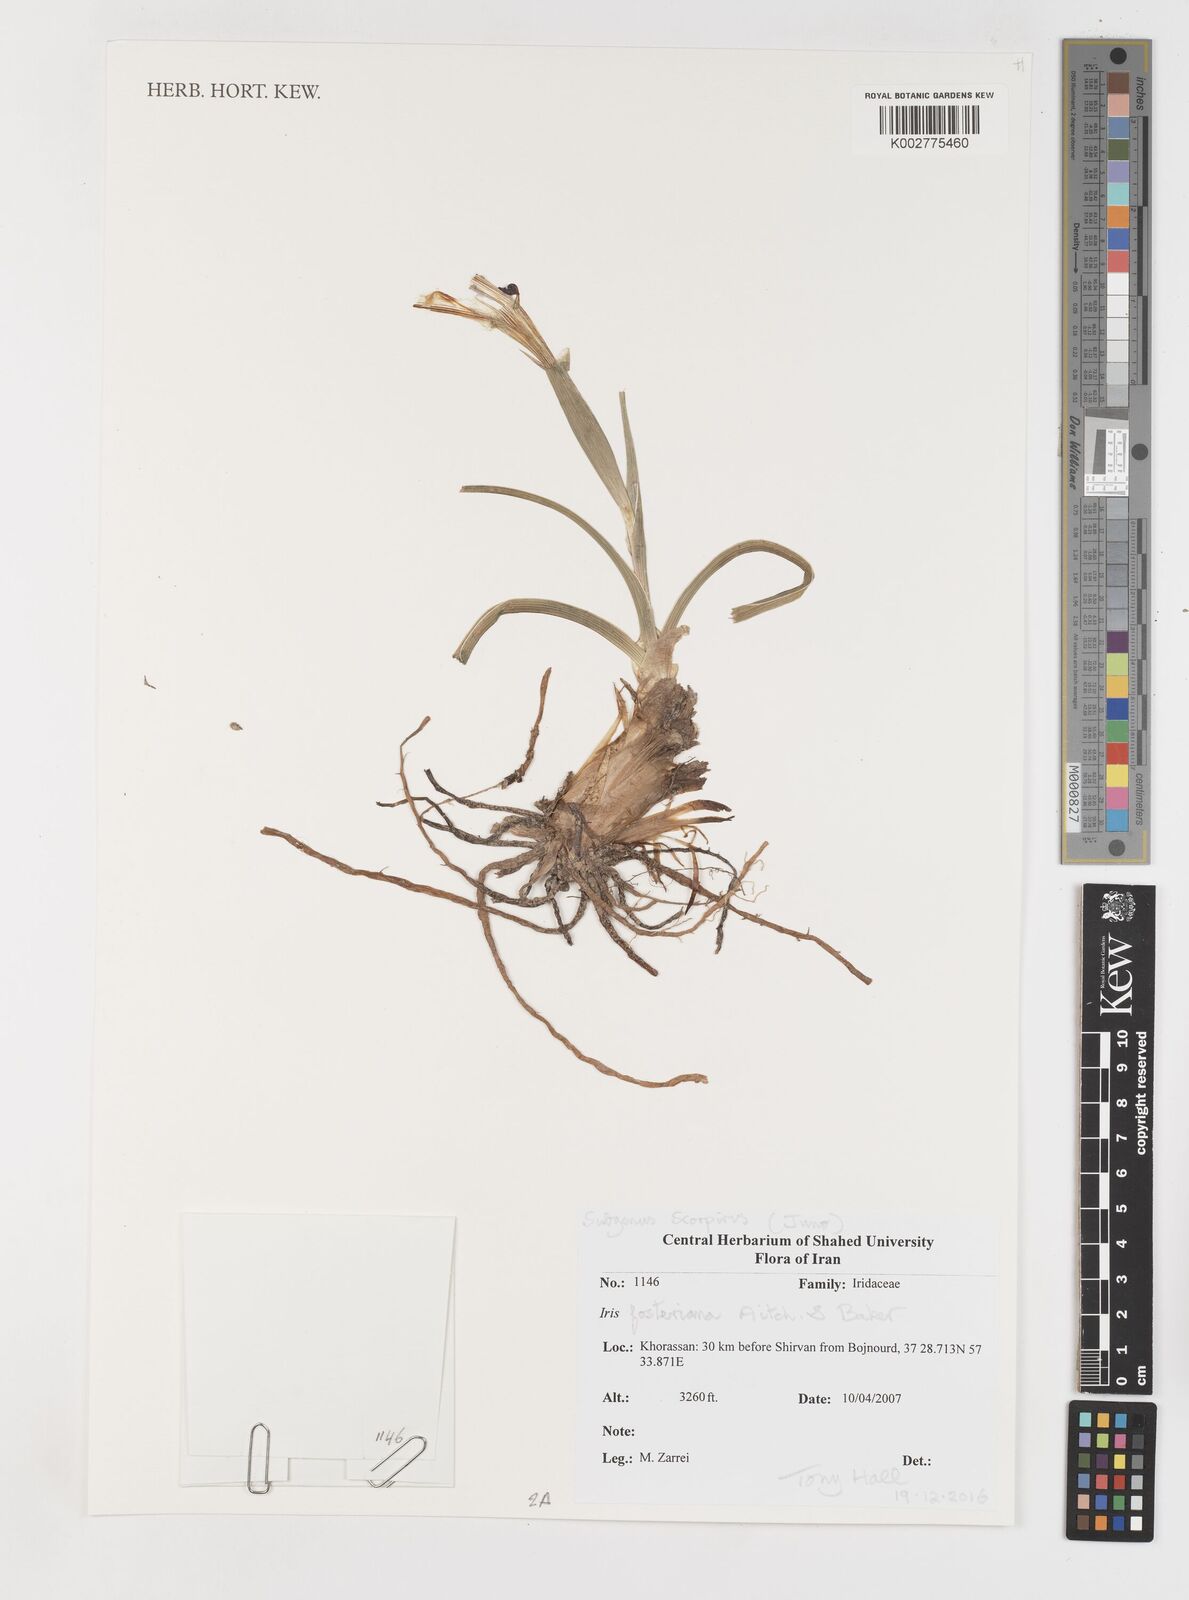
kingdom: Plantae
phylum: Tracheophyta
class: Liliopsida
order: Asparagales
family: Iridaceae
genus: Iris
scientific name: Iris fosteriana
